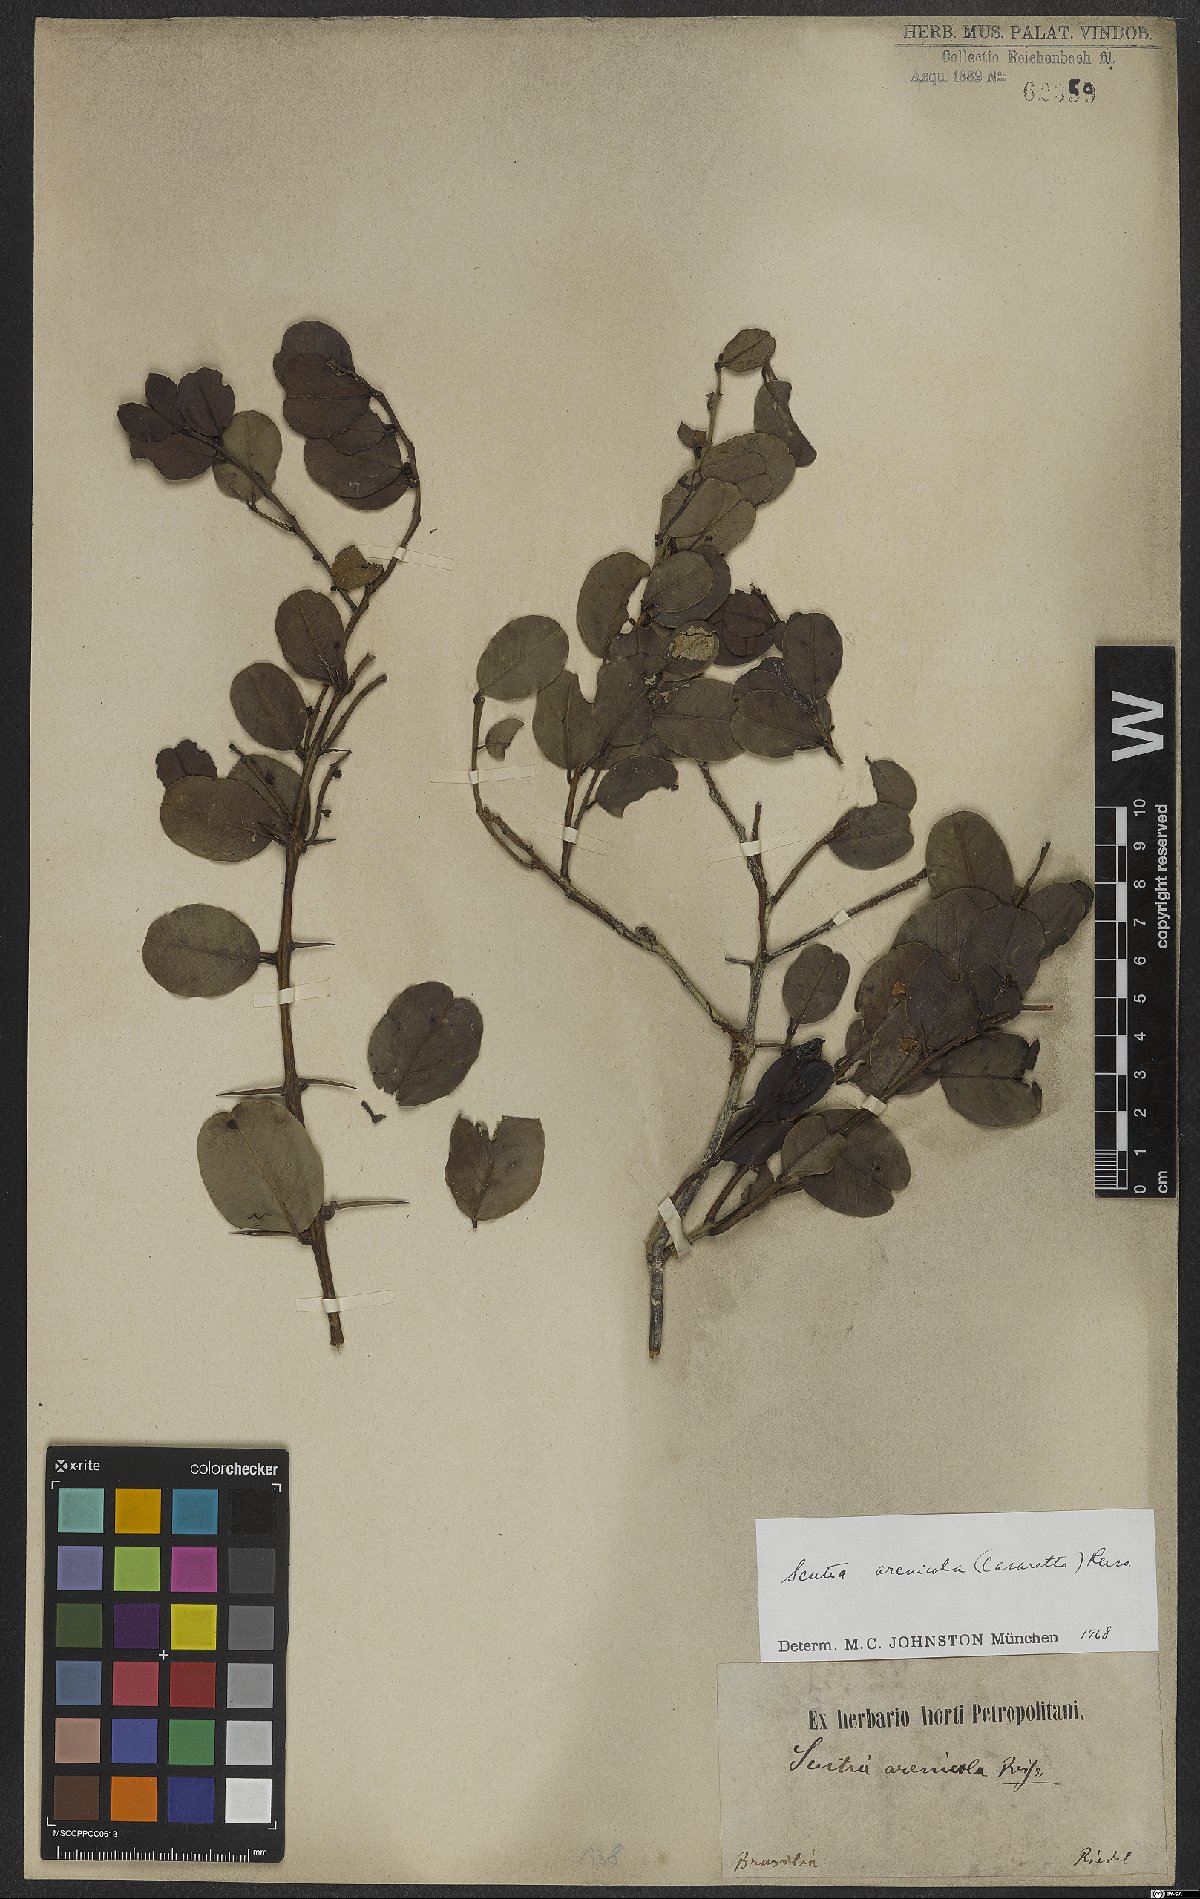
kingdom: Plantae
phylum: Tracheophyta
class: Magnoliopsida
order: Rosales
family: Rhamnaceae
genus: Scutia
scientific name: Scutia arenicola
